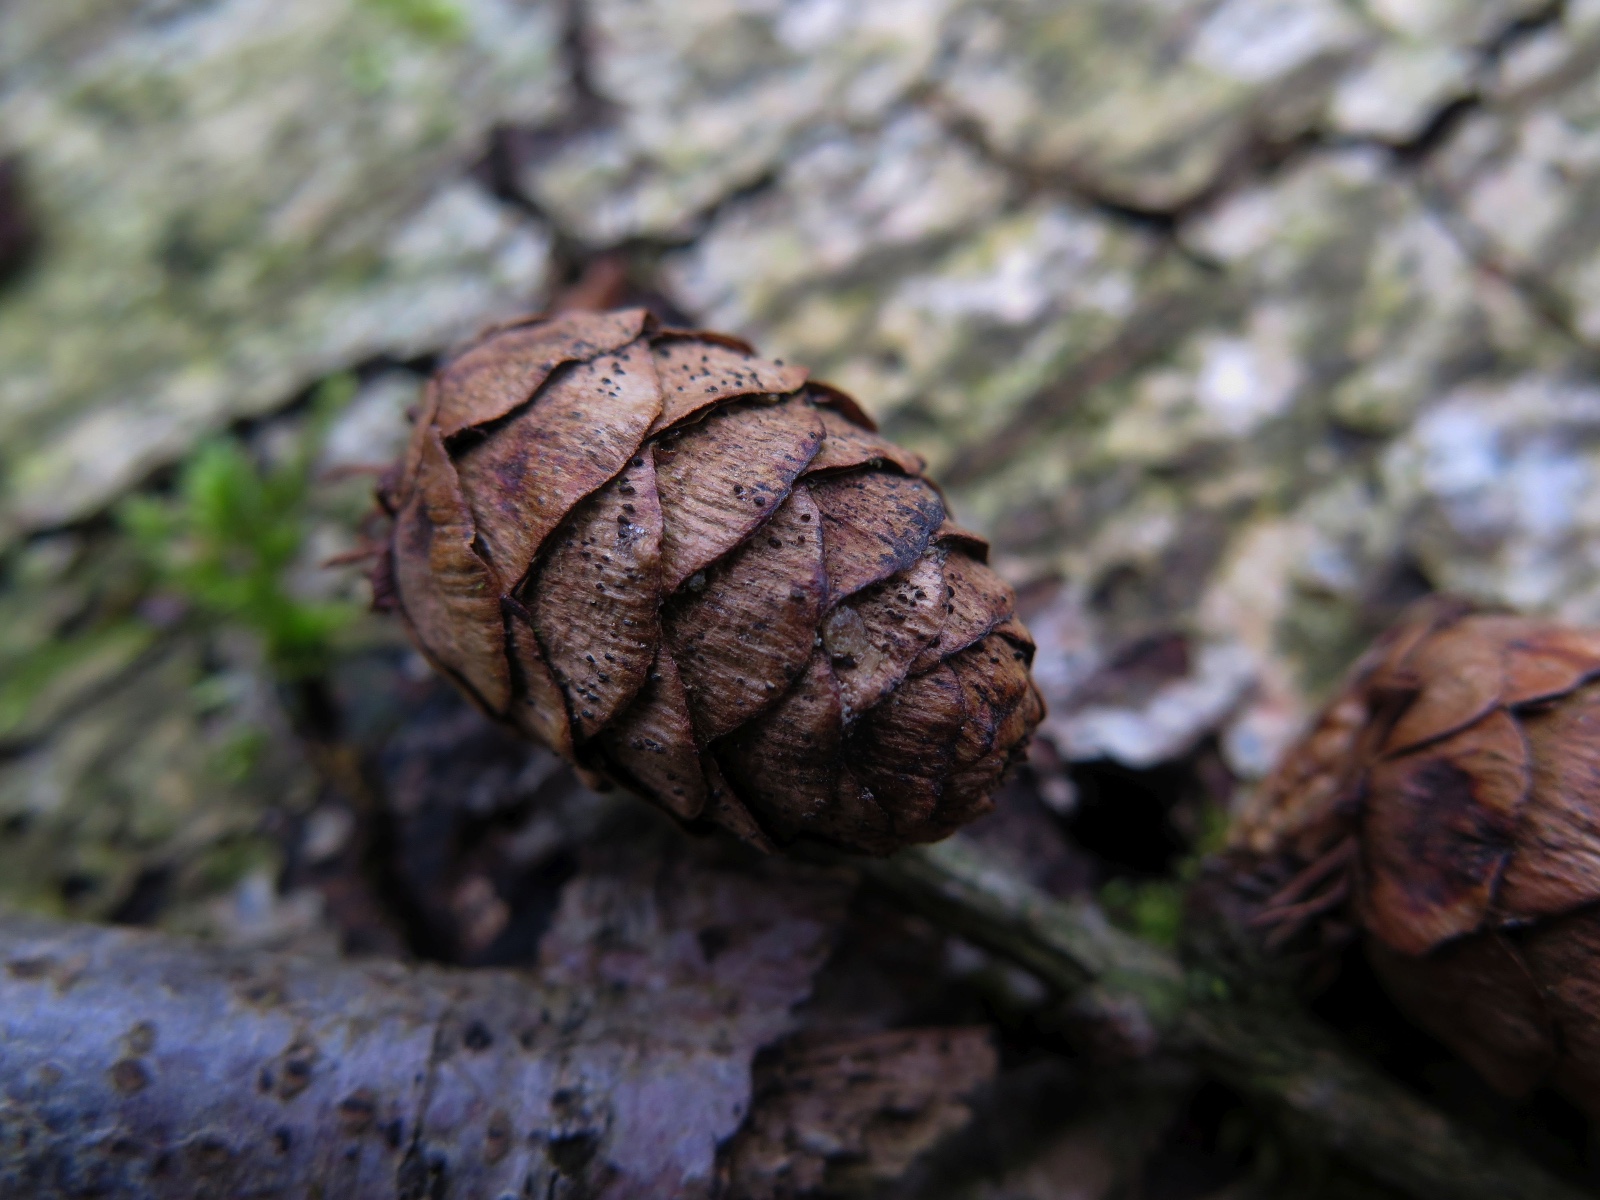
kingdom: Fungi
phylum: Ascomycota
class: Sordariomycetes
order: Diaporthales
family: Gnomoniaceae
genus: Sirococcus
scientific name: Sirococcus conigenus
